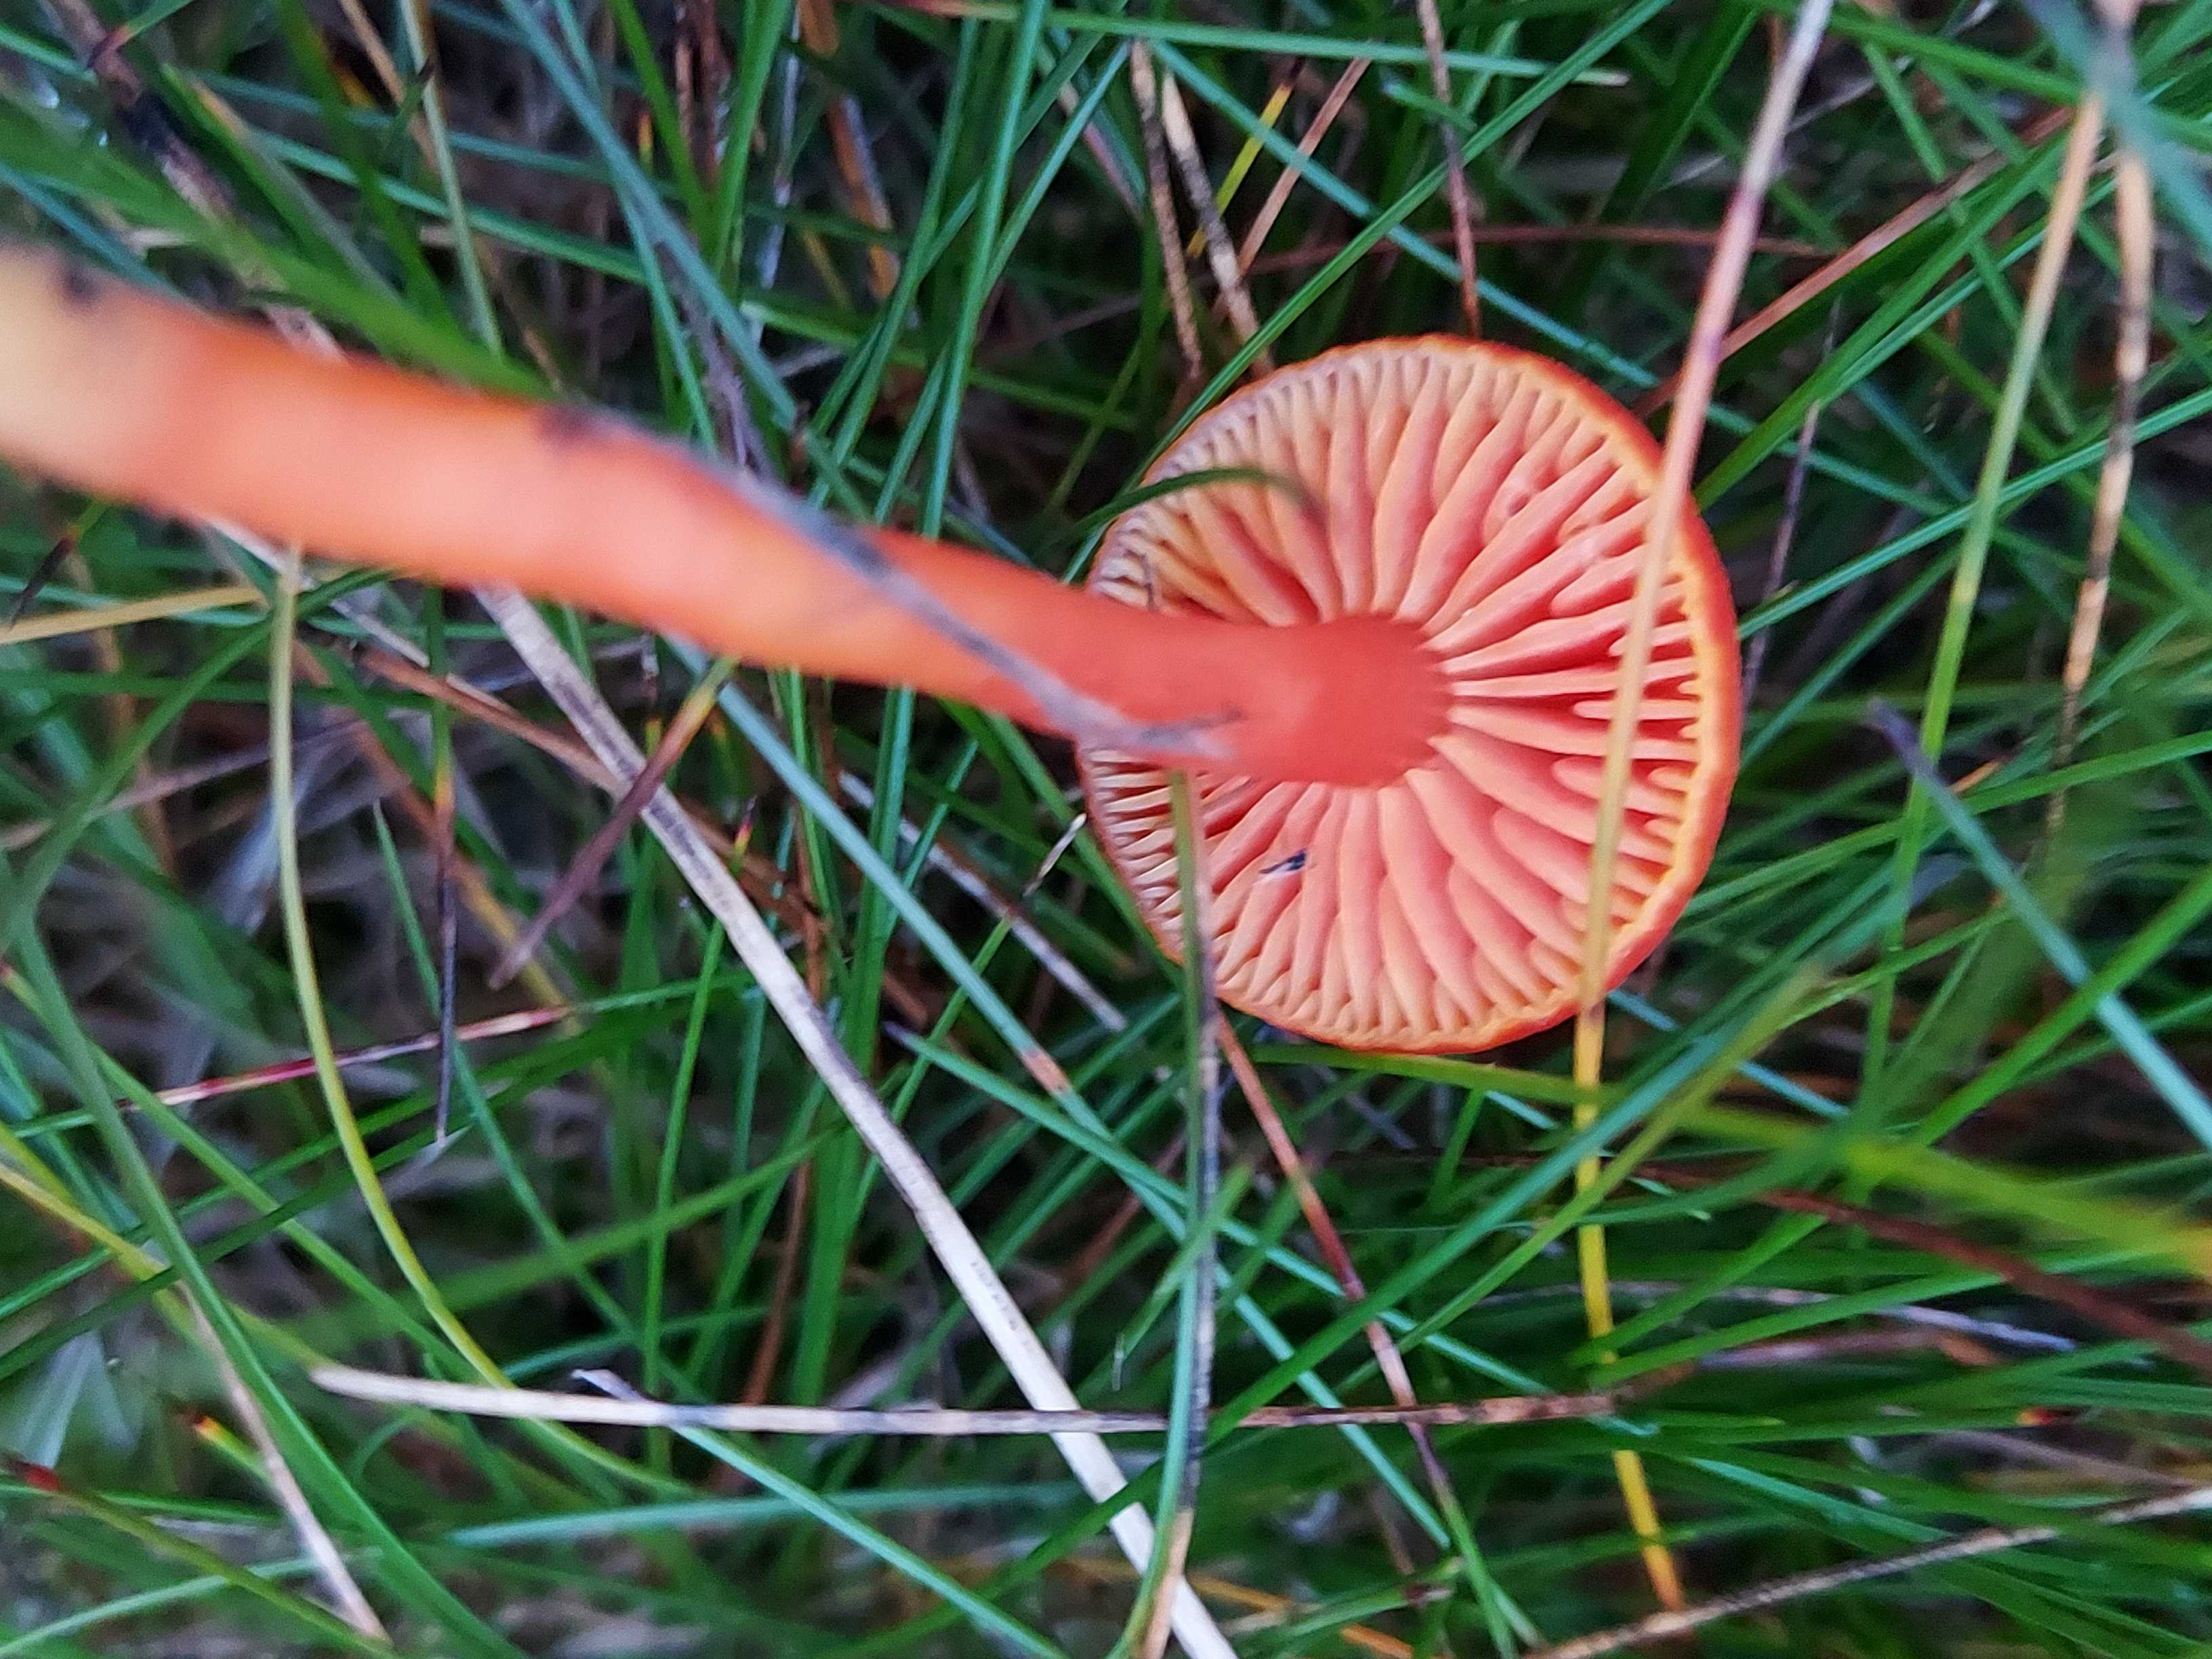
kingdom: Fungi
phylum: Basidiomycota
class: Agaricomycetes
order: Agaricales
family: Hygrophoraceae
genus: Hygrocybe
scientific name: Hygrocybe miniata
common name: mønje-vokshat
